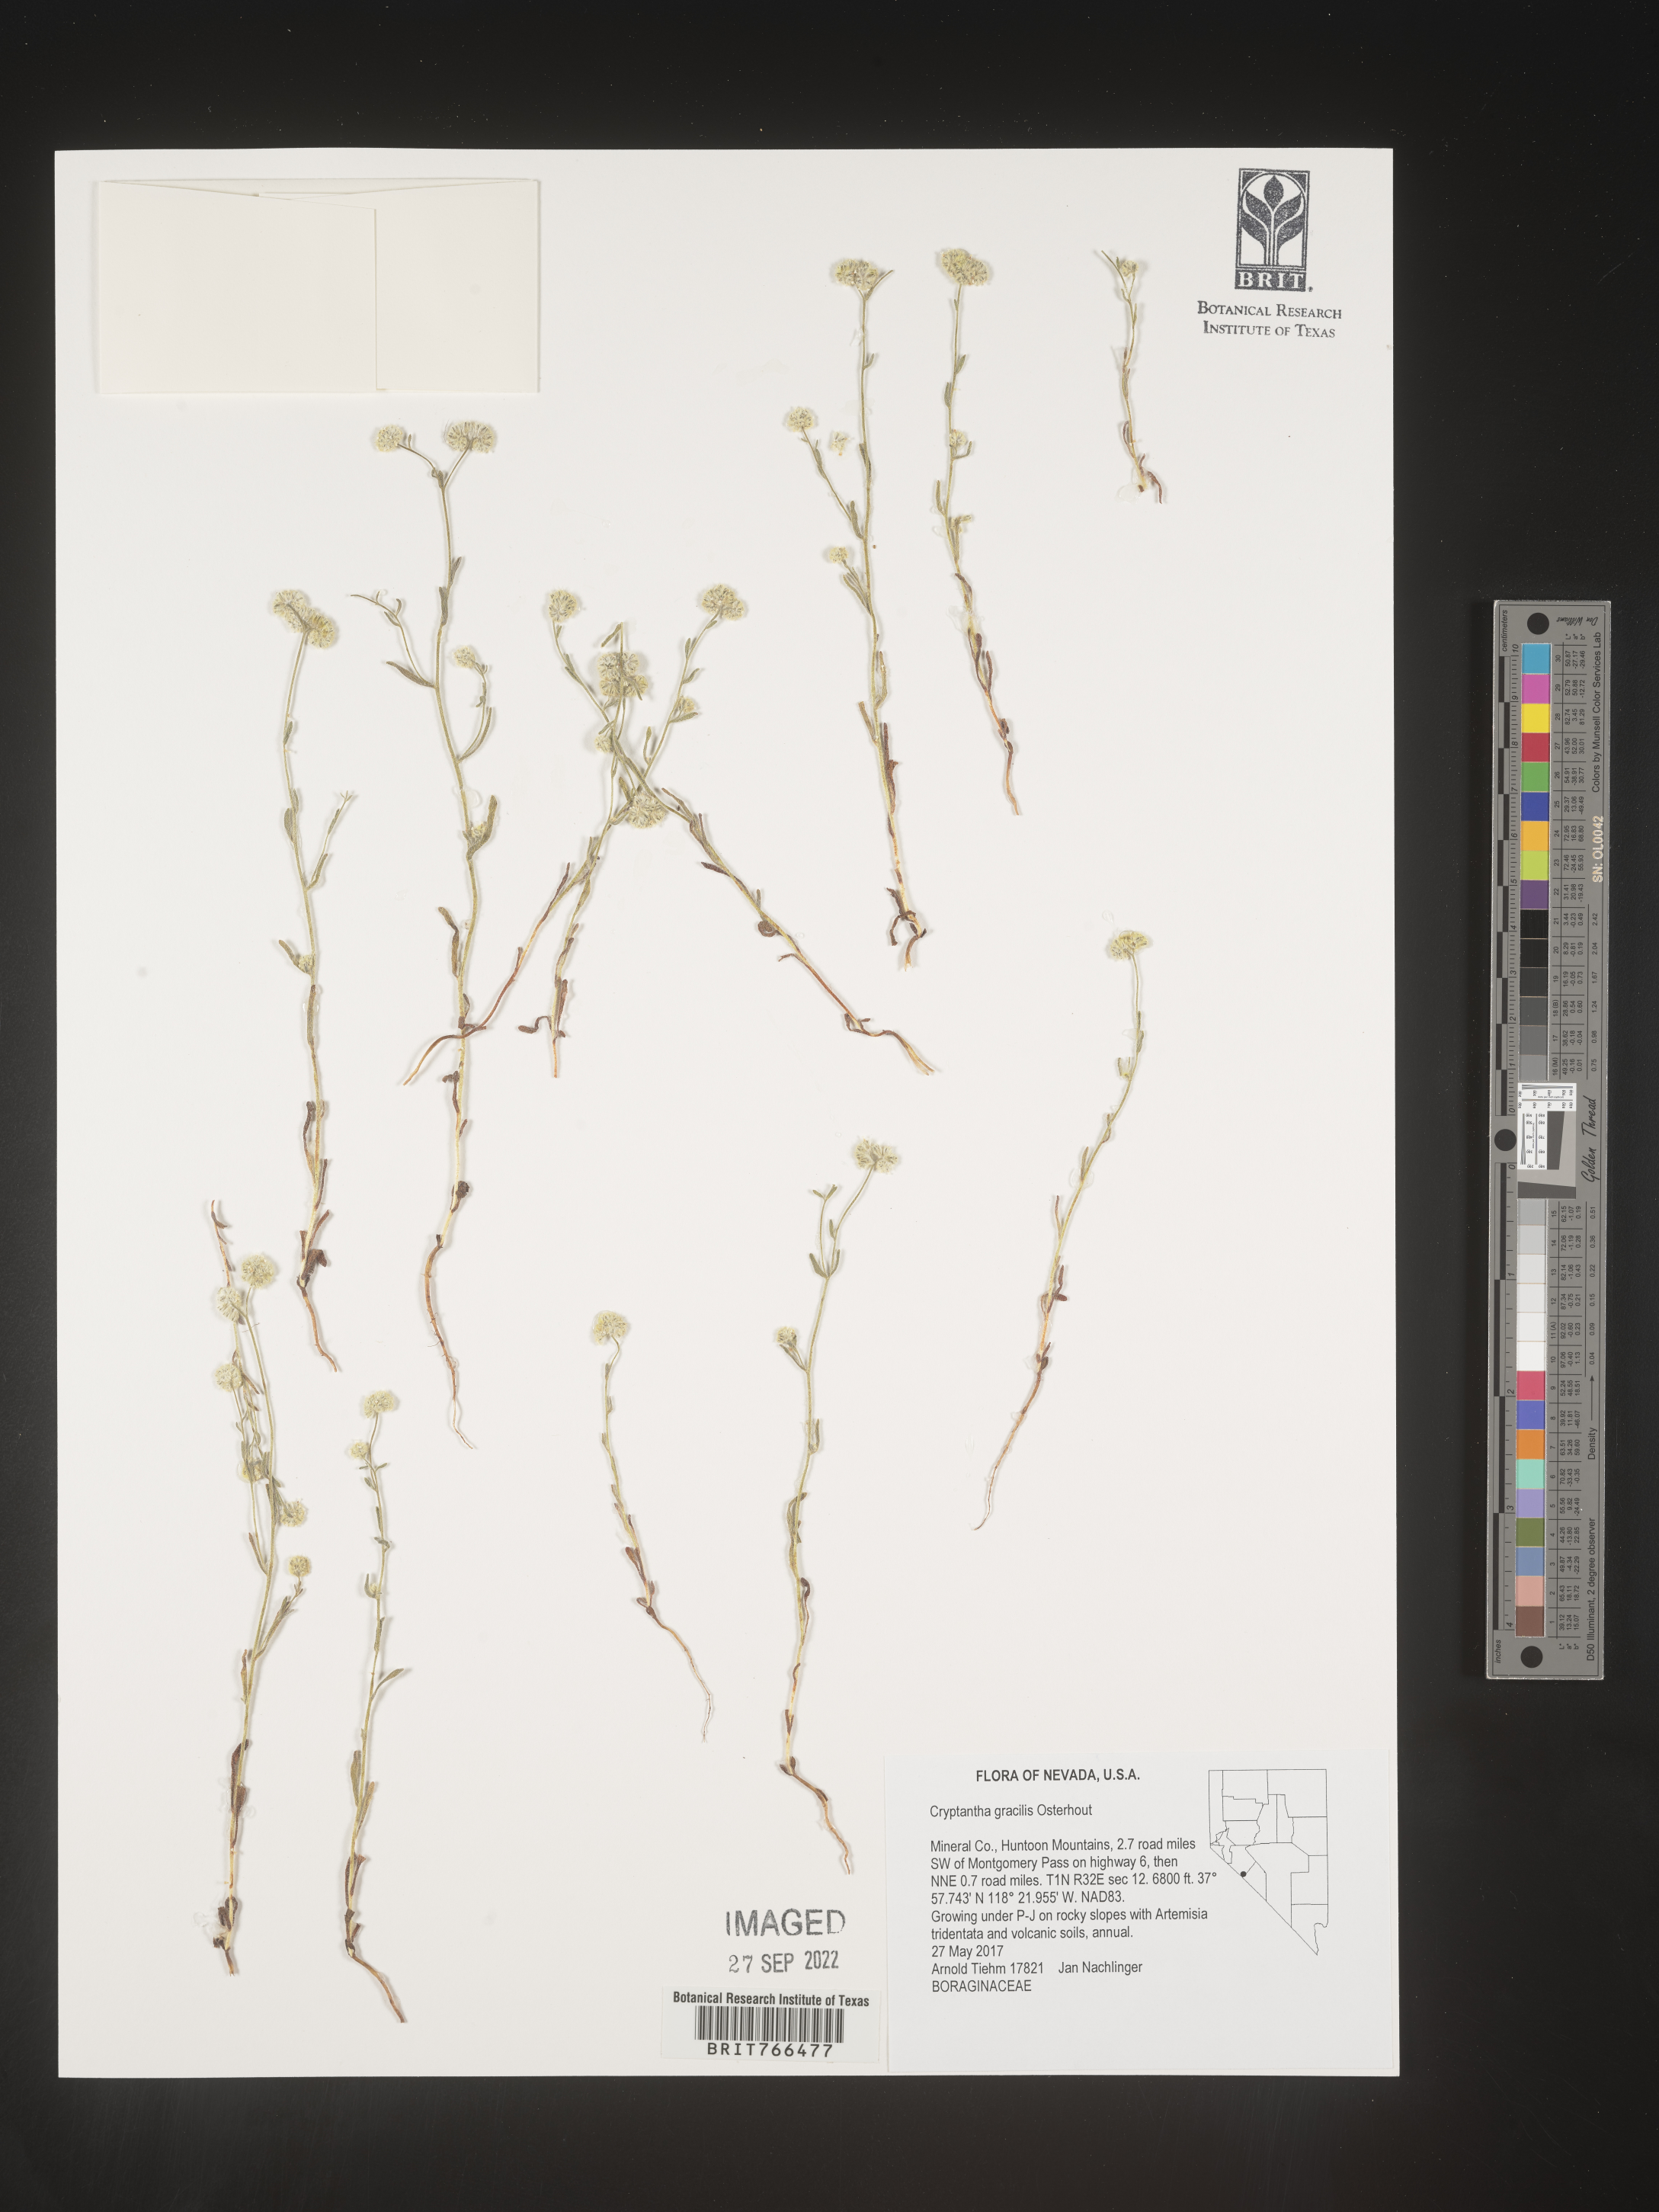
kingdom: Plantae
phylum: Tracheophyta
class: Magnoliopsida
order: Boraginales
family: Boraginaceae
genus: Cryptantha
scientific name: Cryptantha
